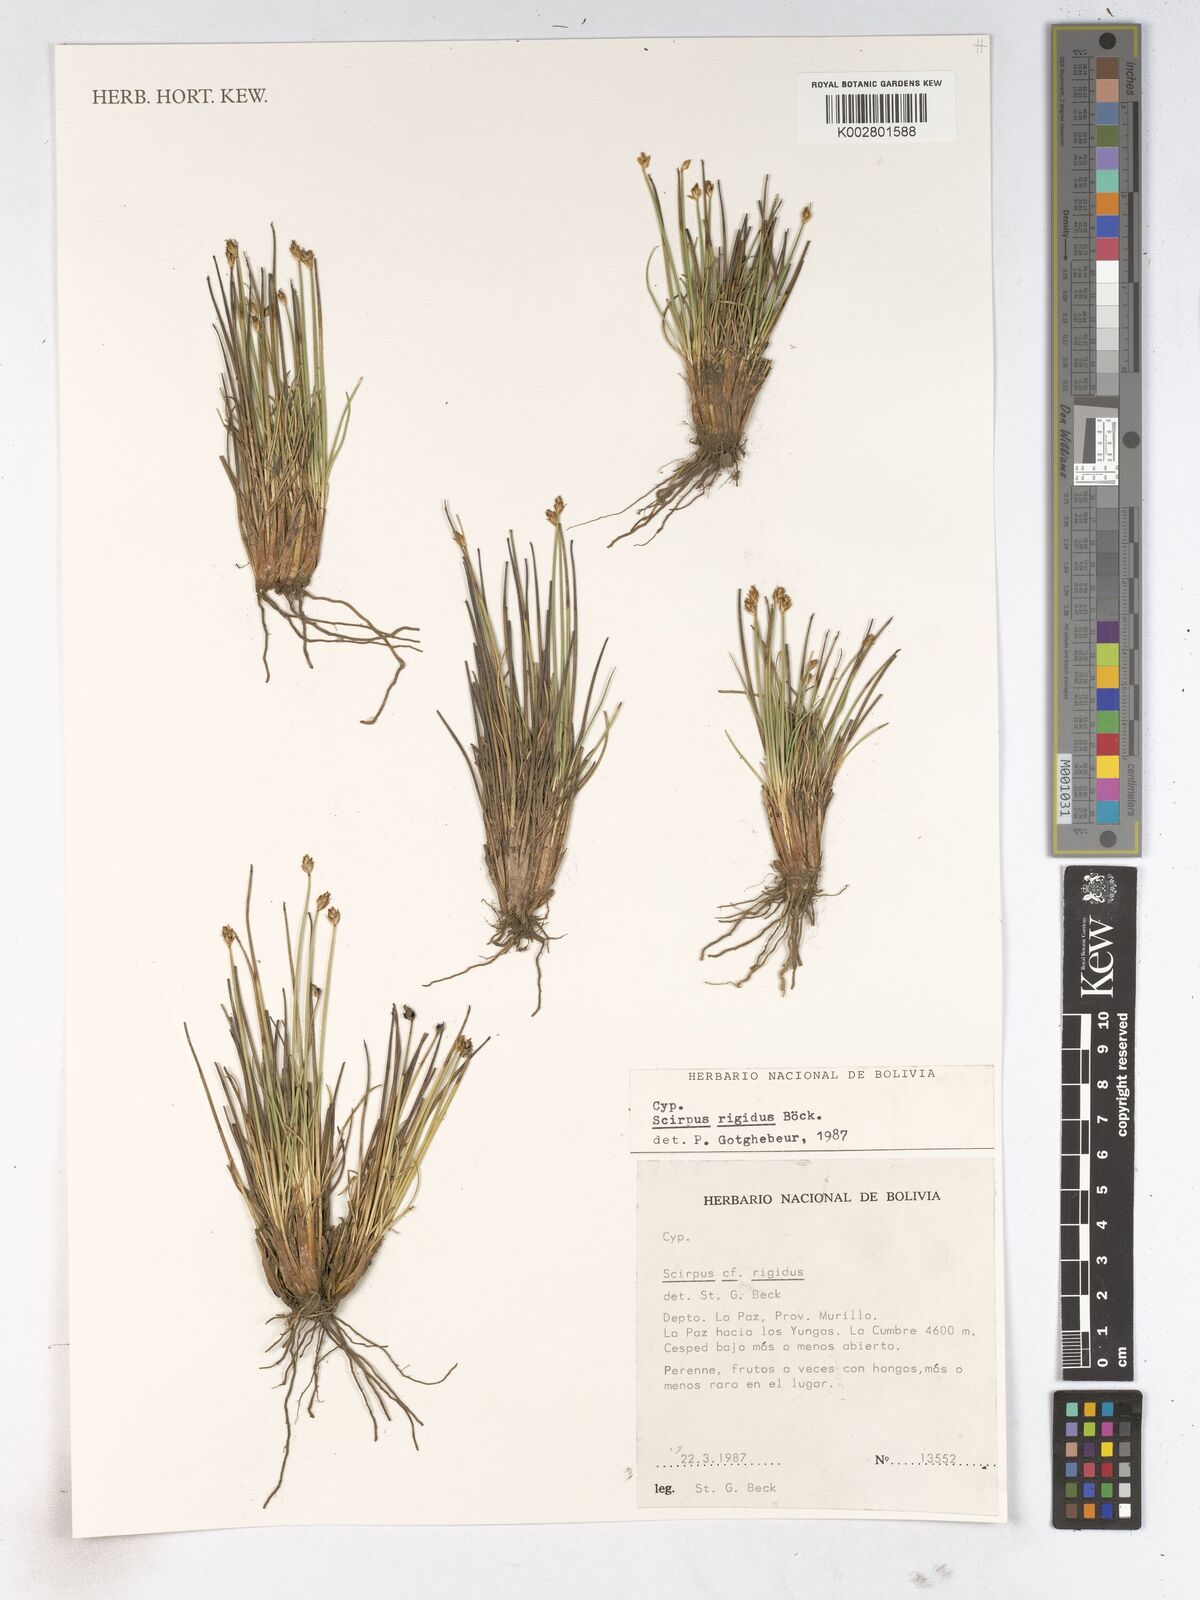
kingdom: Plantae
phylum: Tracheophyta
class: Liliopsida
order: Poales
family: Cyperaceae
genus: Trichophorum
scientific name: Trichophorum rigidum
